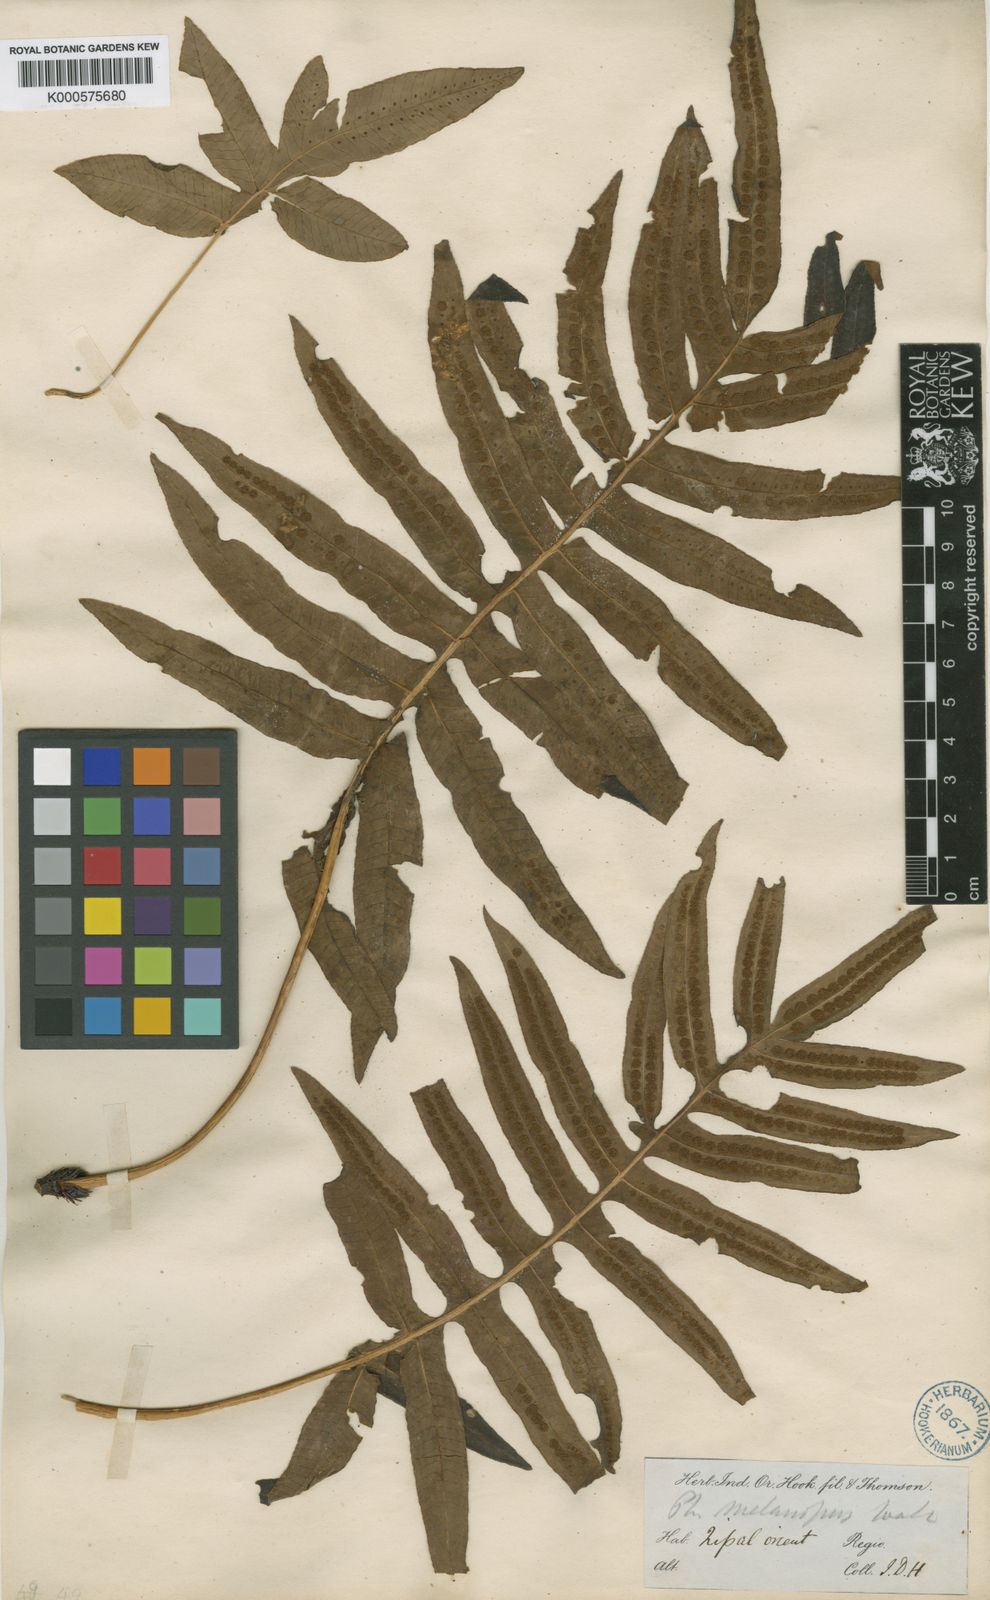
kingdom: Plantae
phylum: Tracheophyta
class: Polypodiopsida
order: Polypodiales
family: Polypodiaceae
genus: Selliguea
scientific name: Selliguea ebenipes
